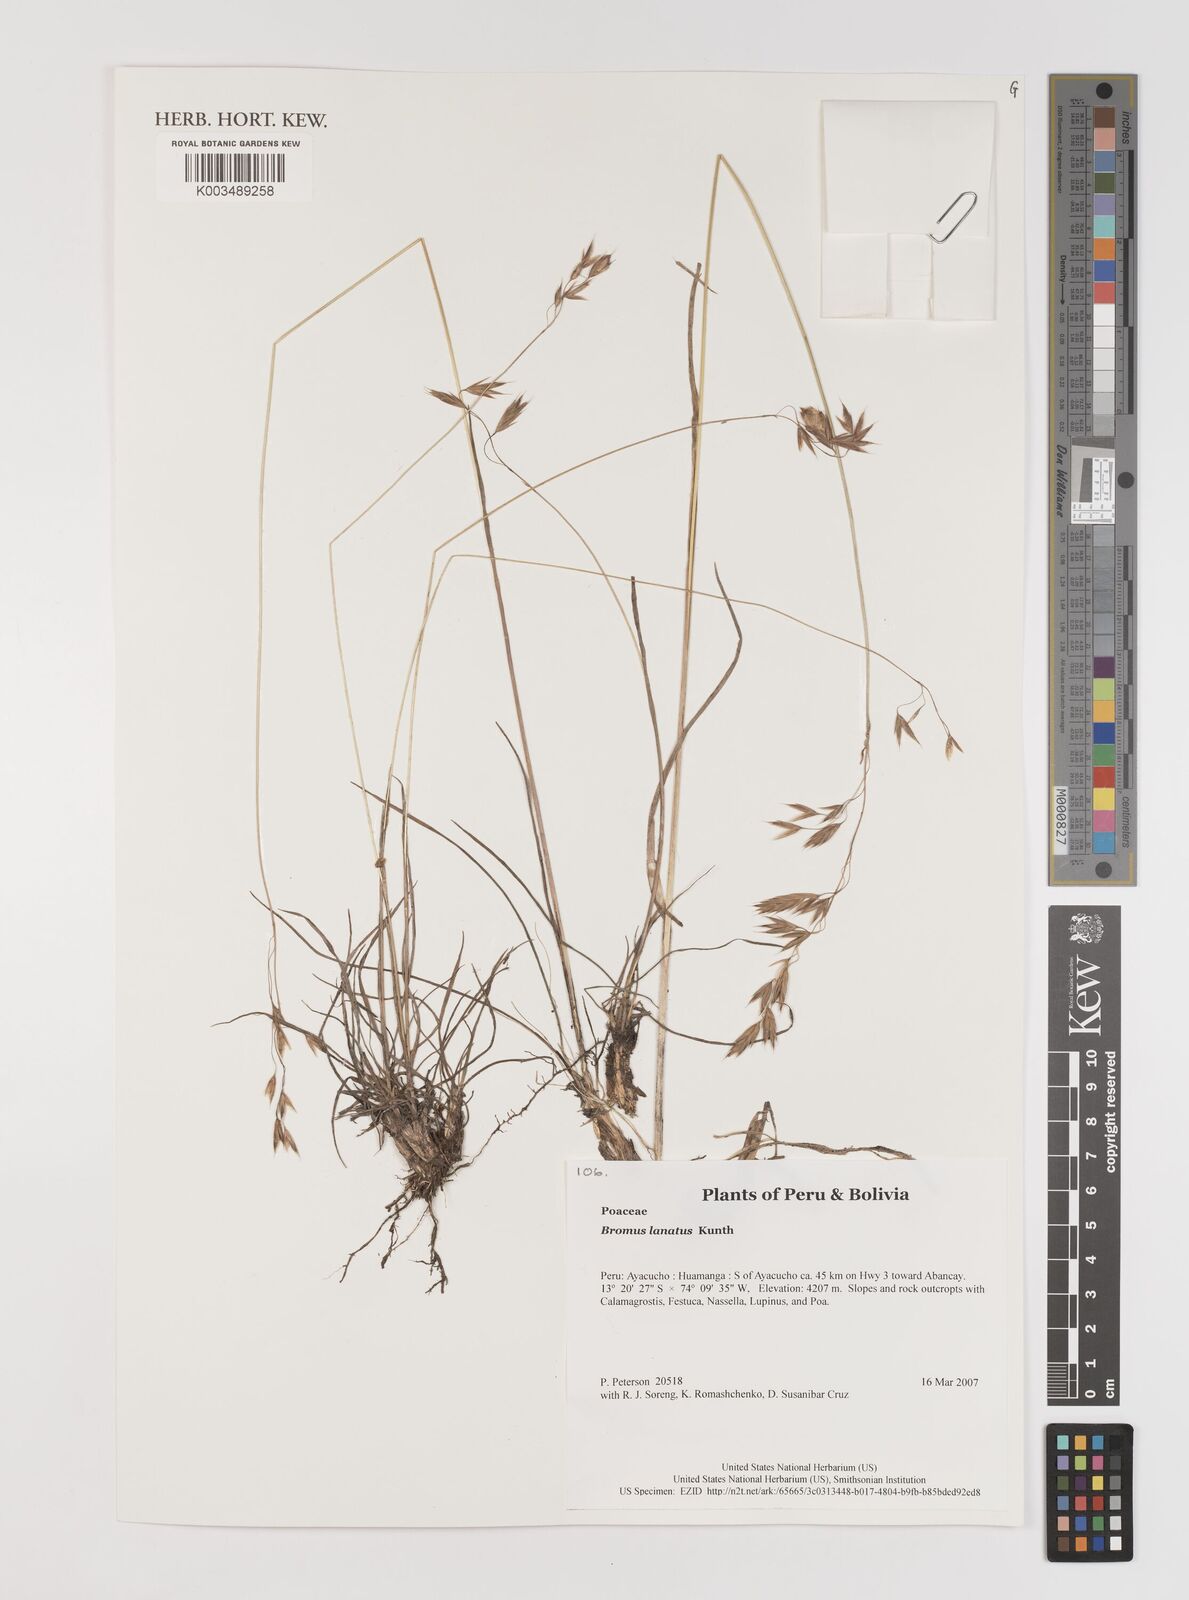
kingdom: Plantae
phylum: Tracheophyta
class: Liliopsida
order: Poales
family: Poaceae
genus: Bromus
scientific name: Bromus lanatus
